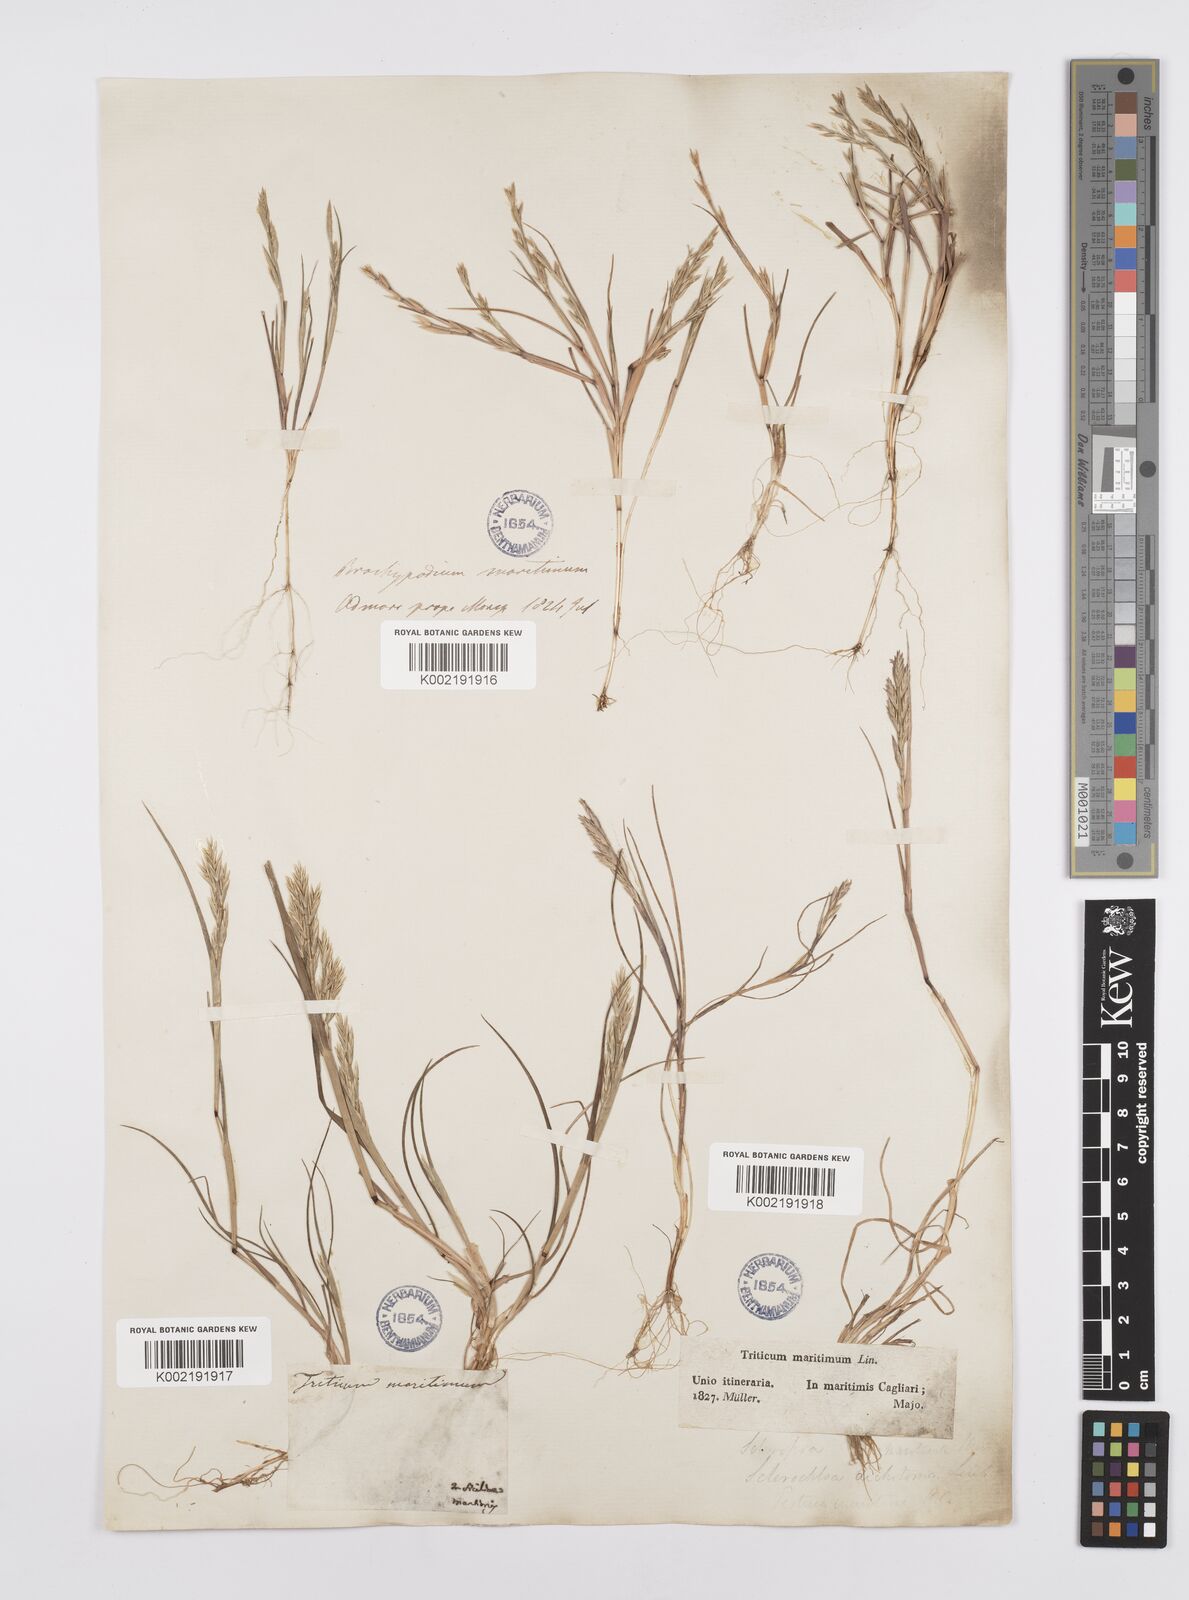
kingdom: Plantae
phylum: Tracheophyta
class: Liliopsida
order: Poales
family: Poaceae
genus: Cutandia
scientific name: Cutandia maritima
